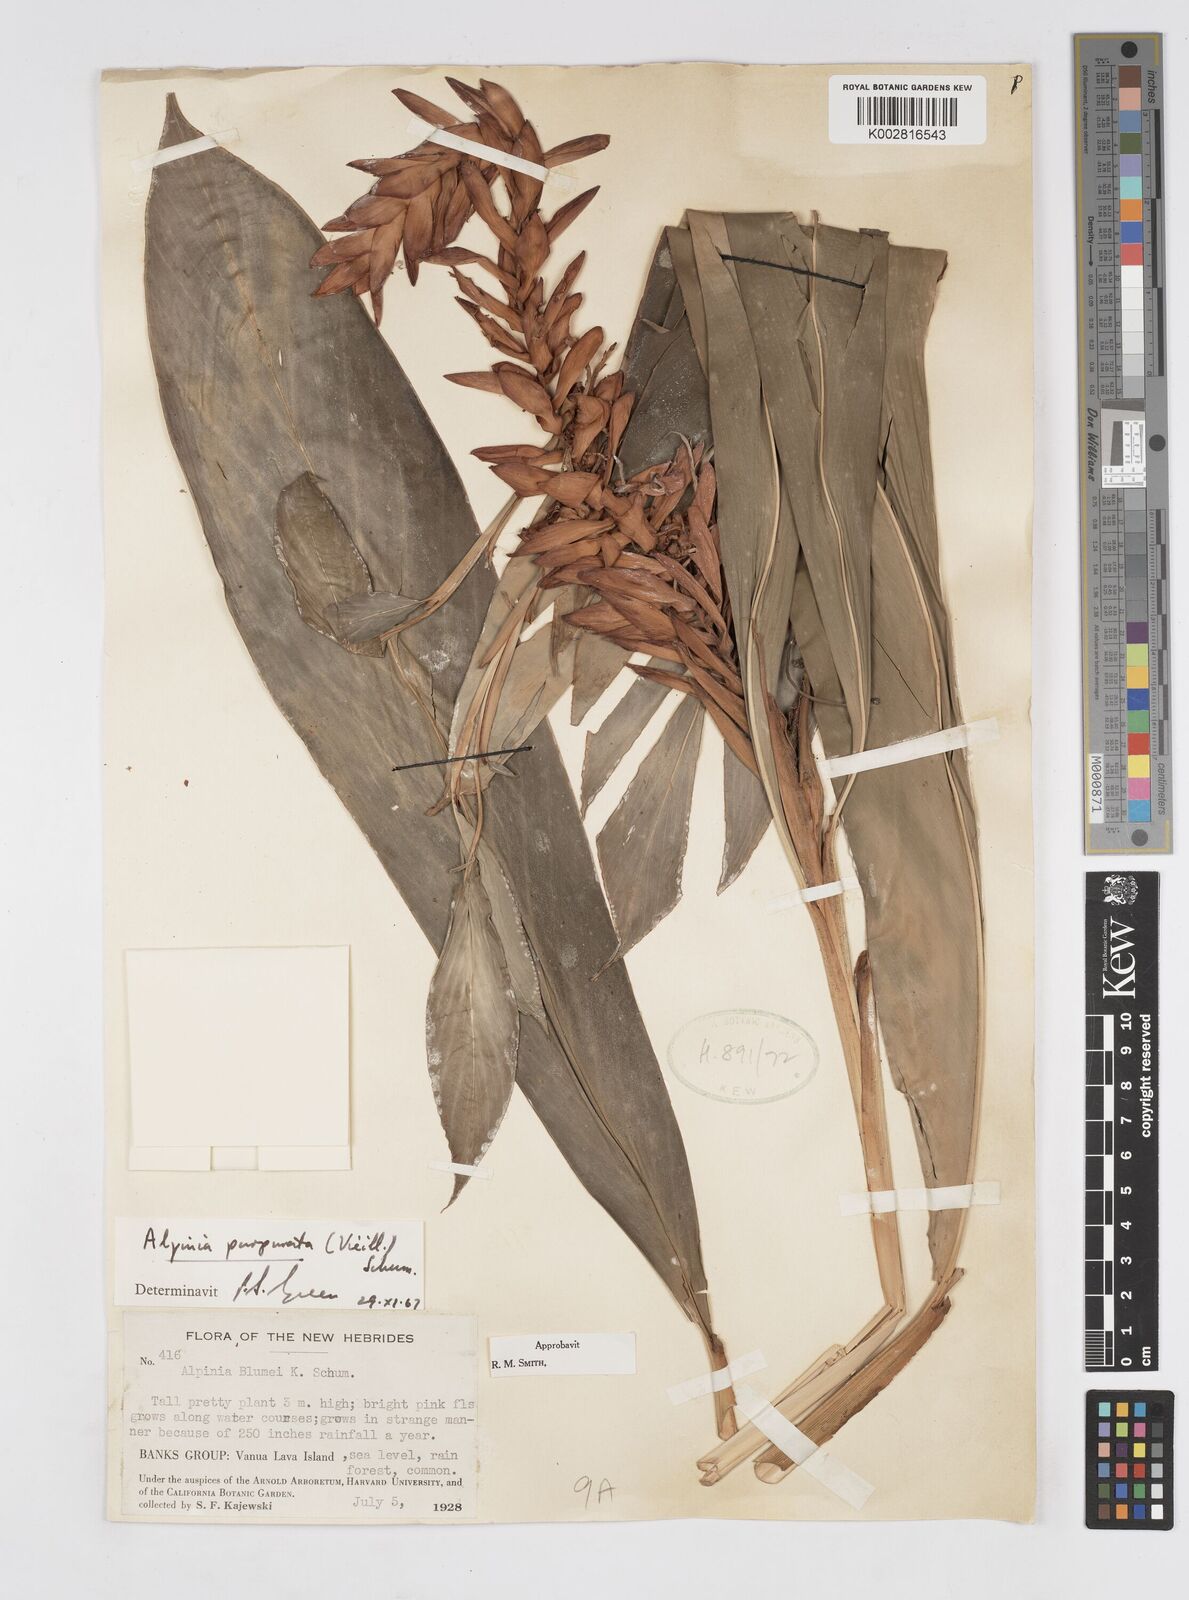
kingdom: Plantae
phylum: Tracheophyta
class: Liliopsida
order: Zingiberales
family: Zingiberaceae
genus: Alpinia
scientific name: Alpinia purpurata
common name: Red ginger
